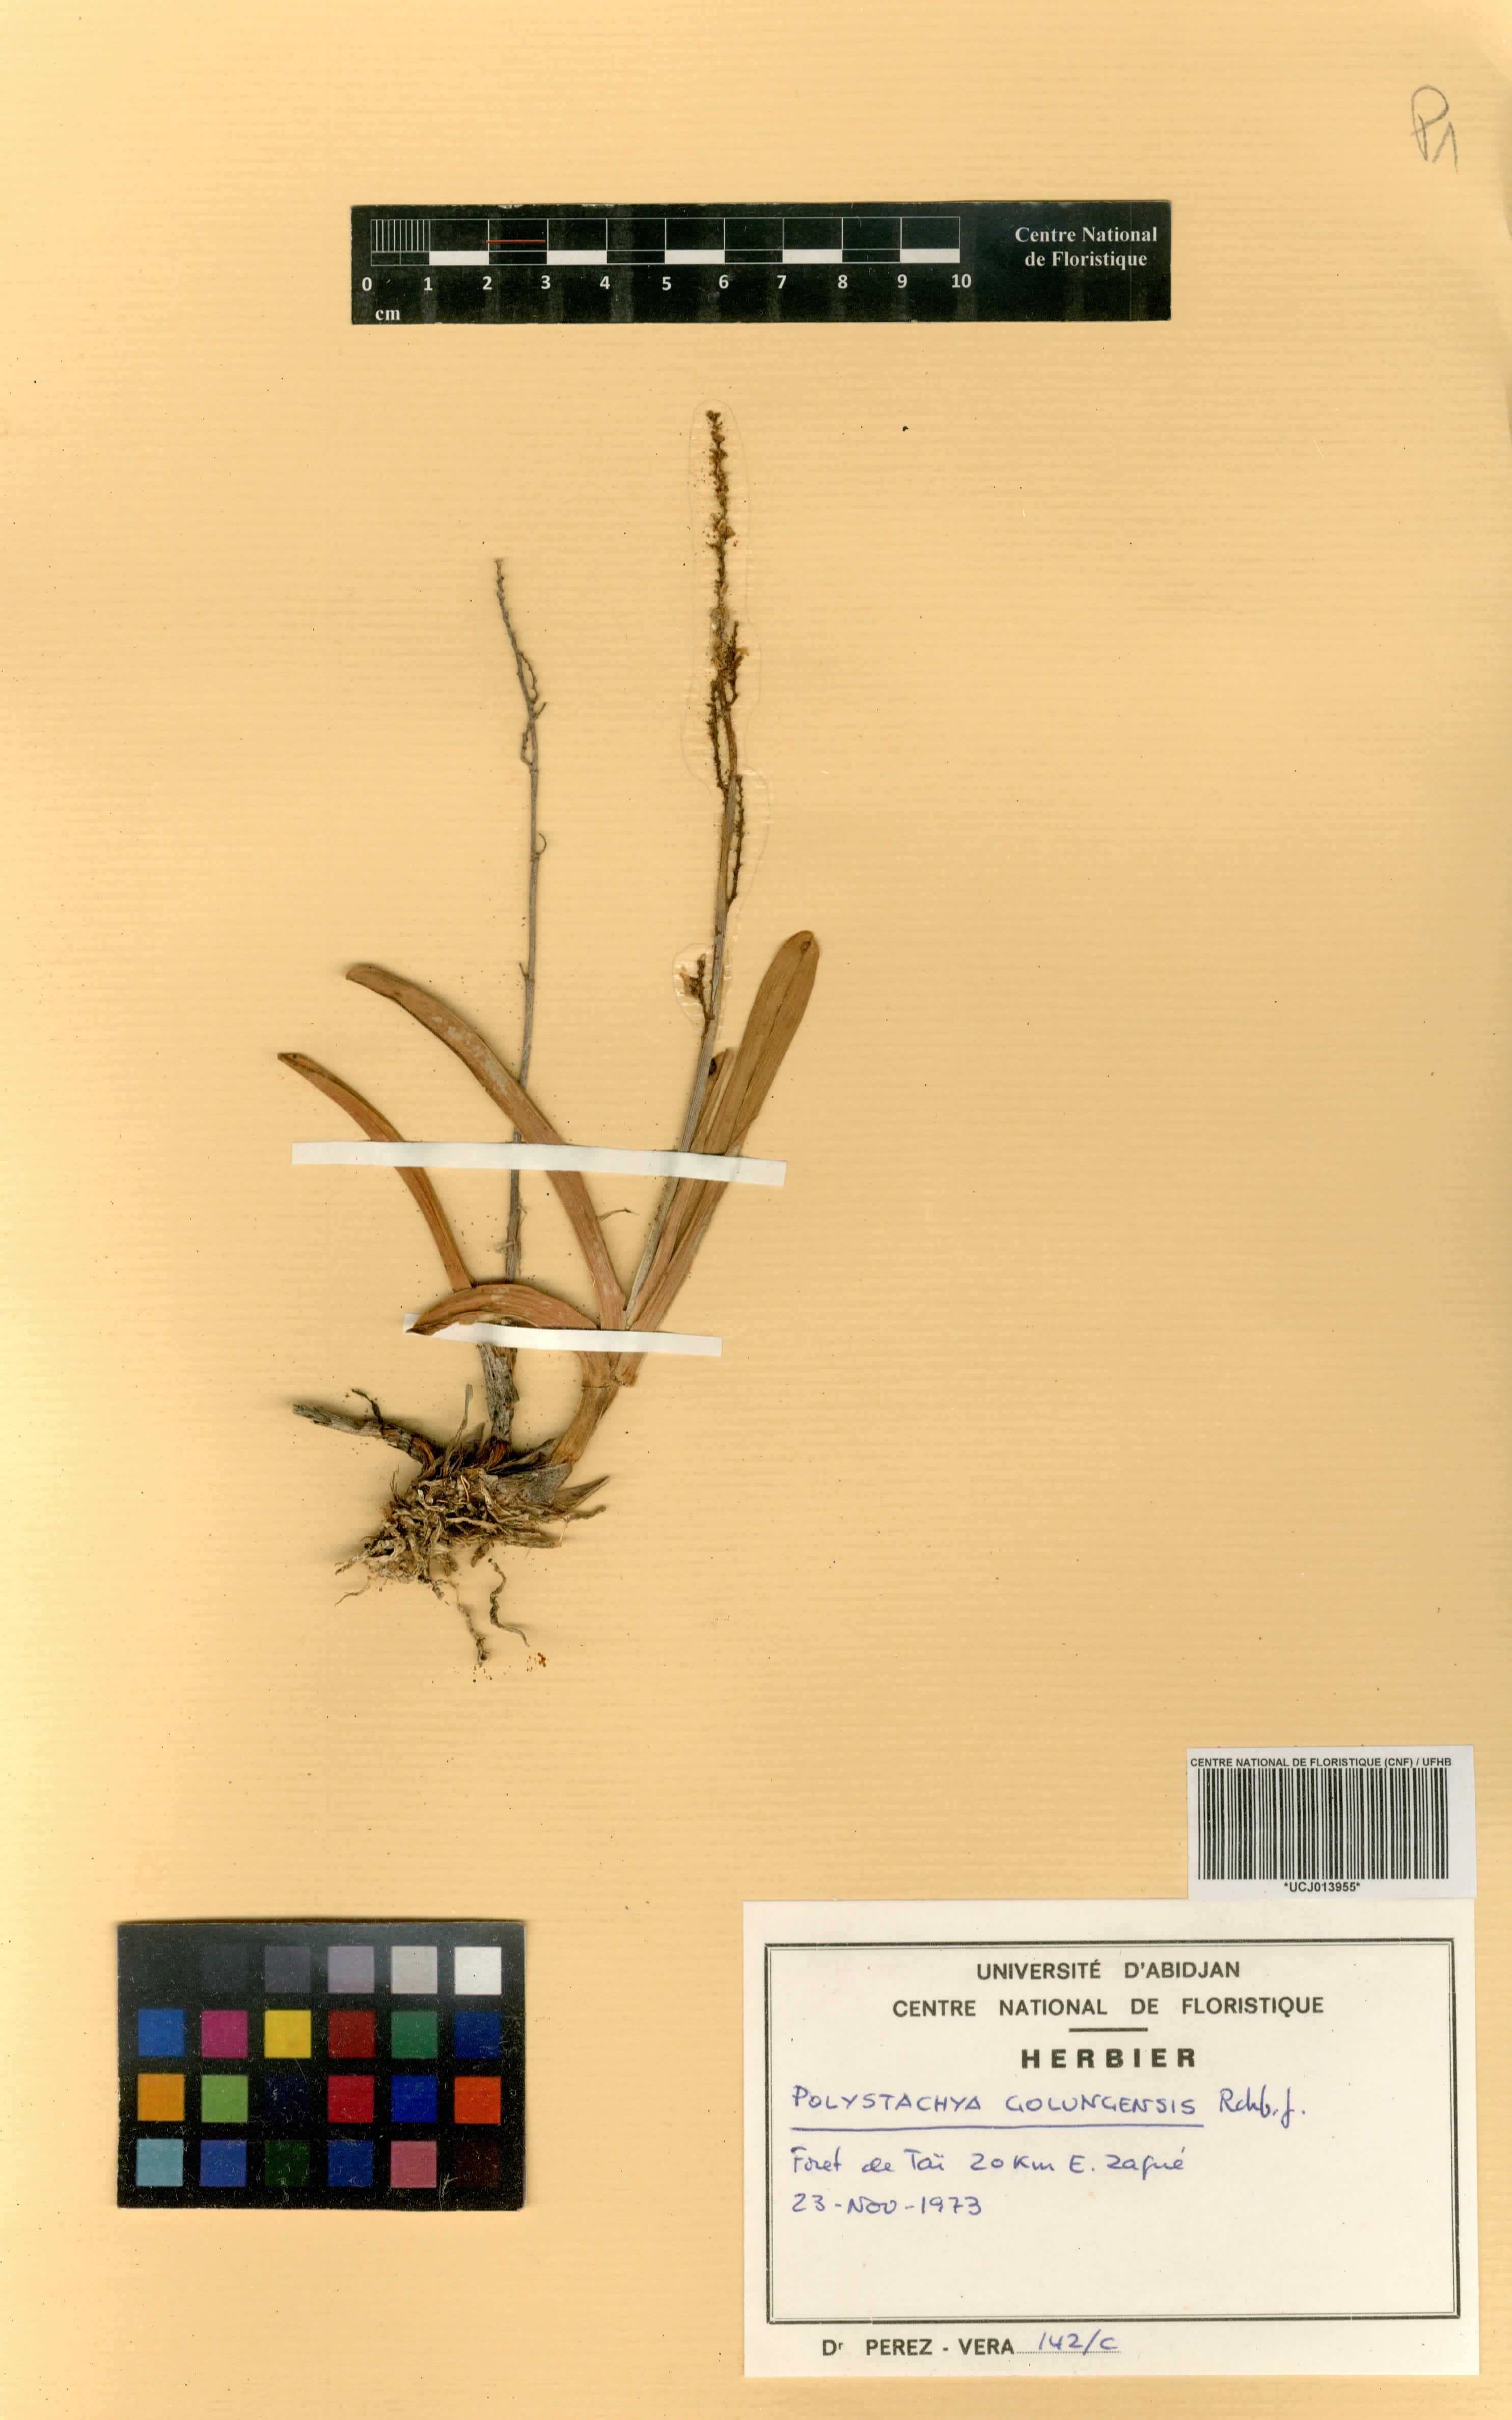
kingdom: Plantae
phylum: Tracheophyta
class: Liliopsida
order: Asparagales
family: Orchidaceae
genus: Polystachya
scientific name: Polystachya golungensis
